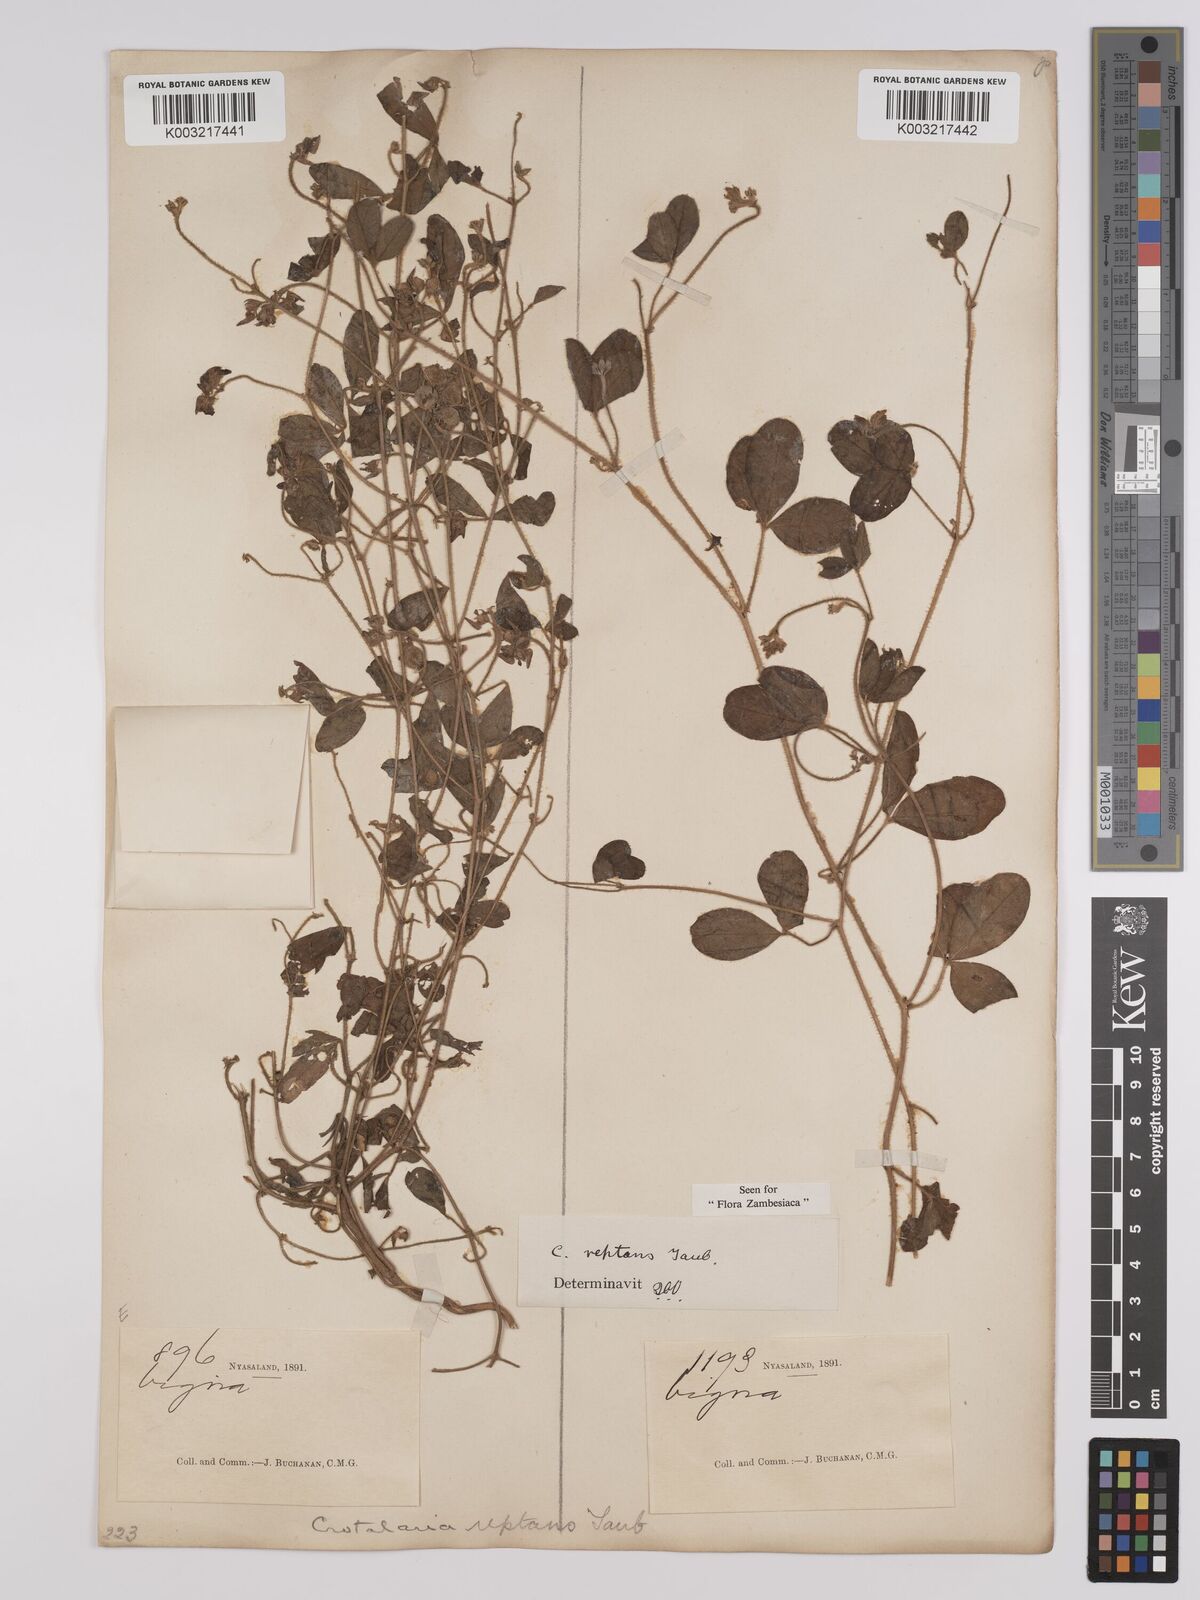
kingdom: Plantae
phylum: Tracheophyta
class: Magnoliopsida
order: Fabales
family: Fabaceae
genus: Crotalaria
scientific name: Crotalaria reptans
